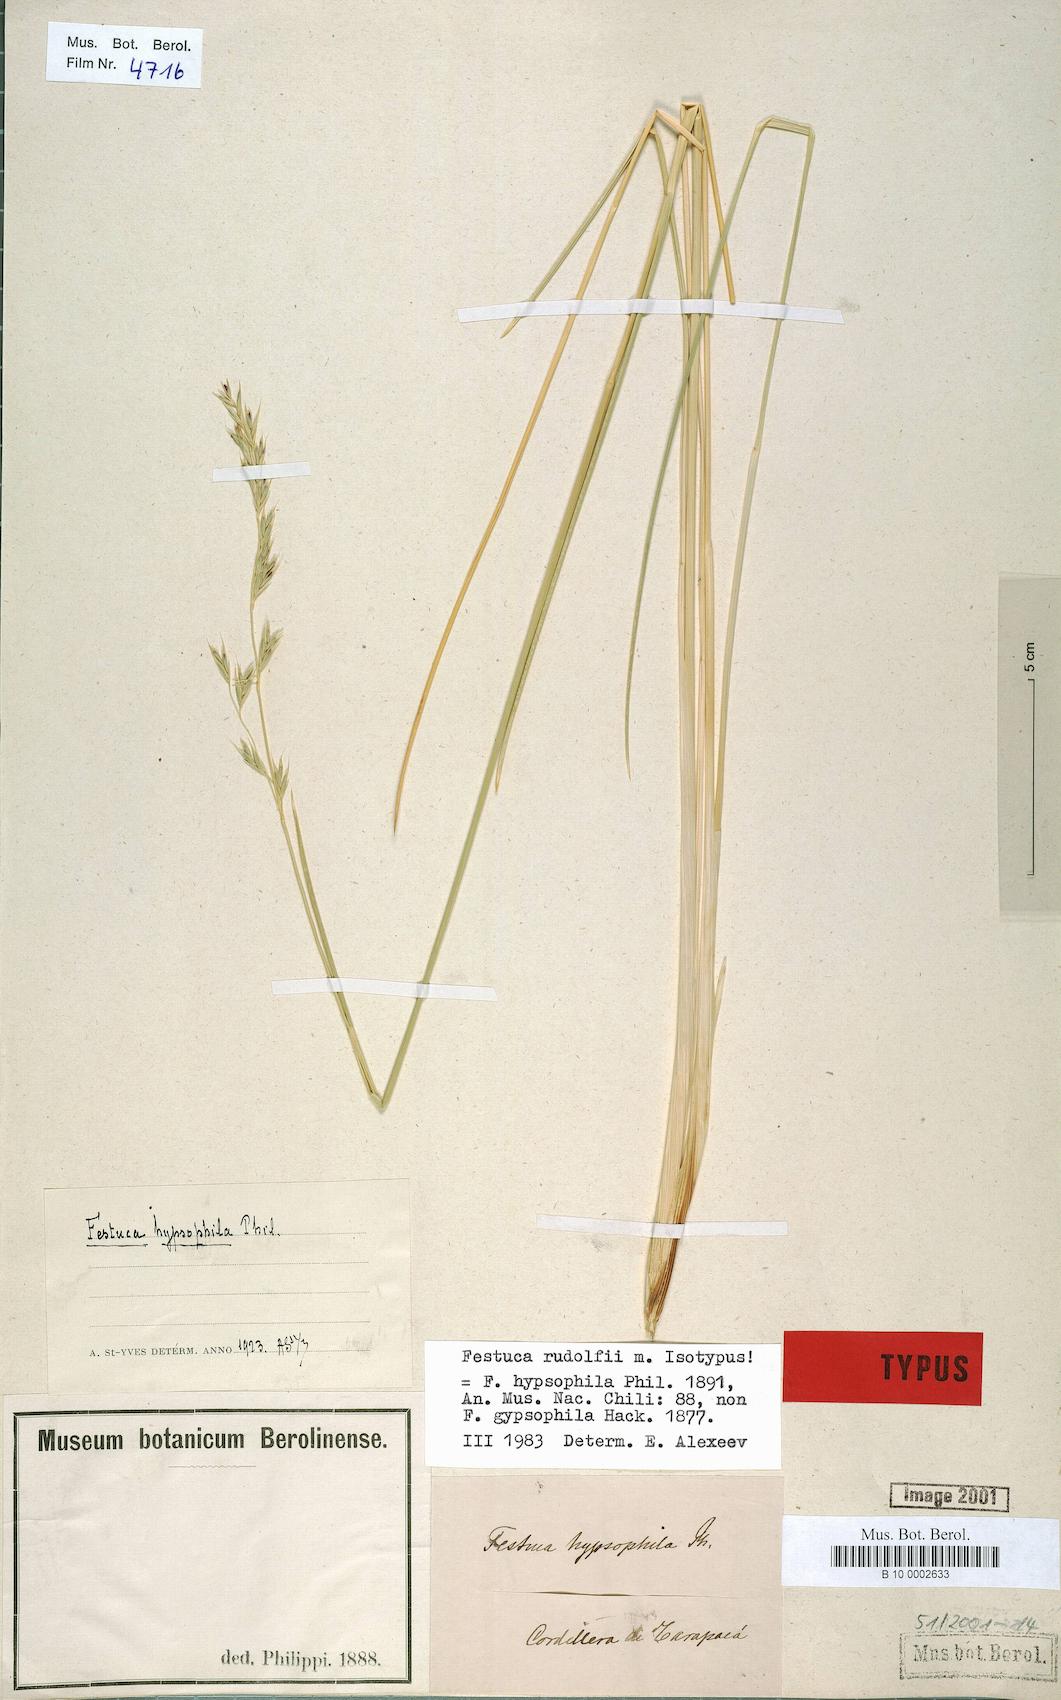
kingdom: Plantae
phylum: Tracheophyta
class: Liliopsida
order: Poales
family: Poaceae
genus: Festuca
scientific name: Festuca
